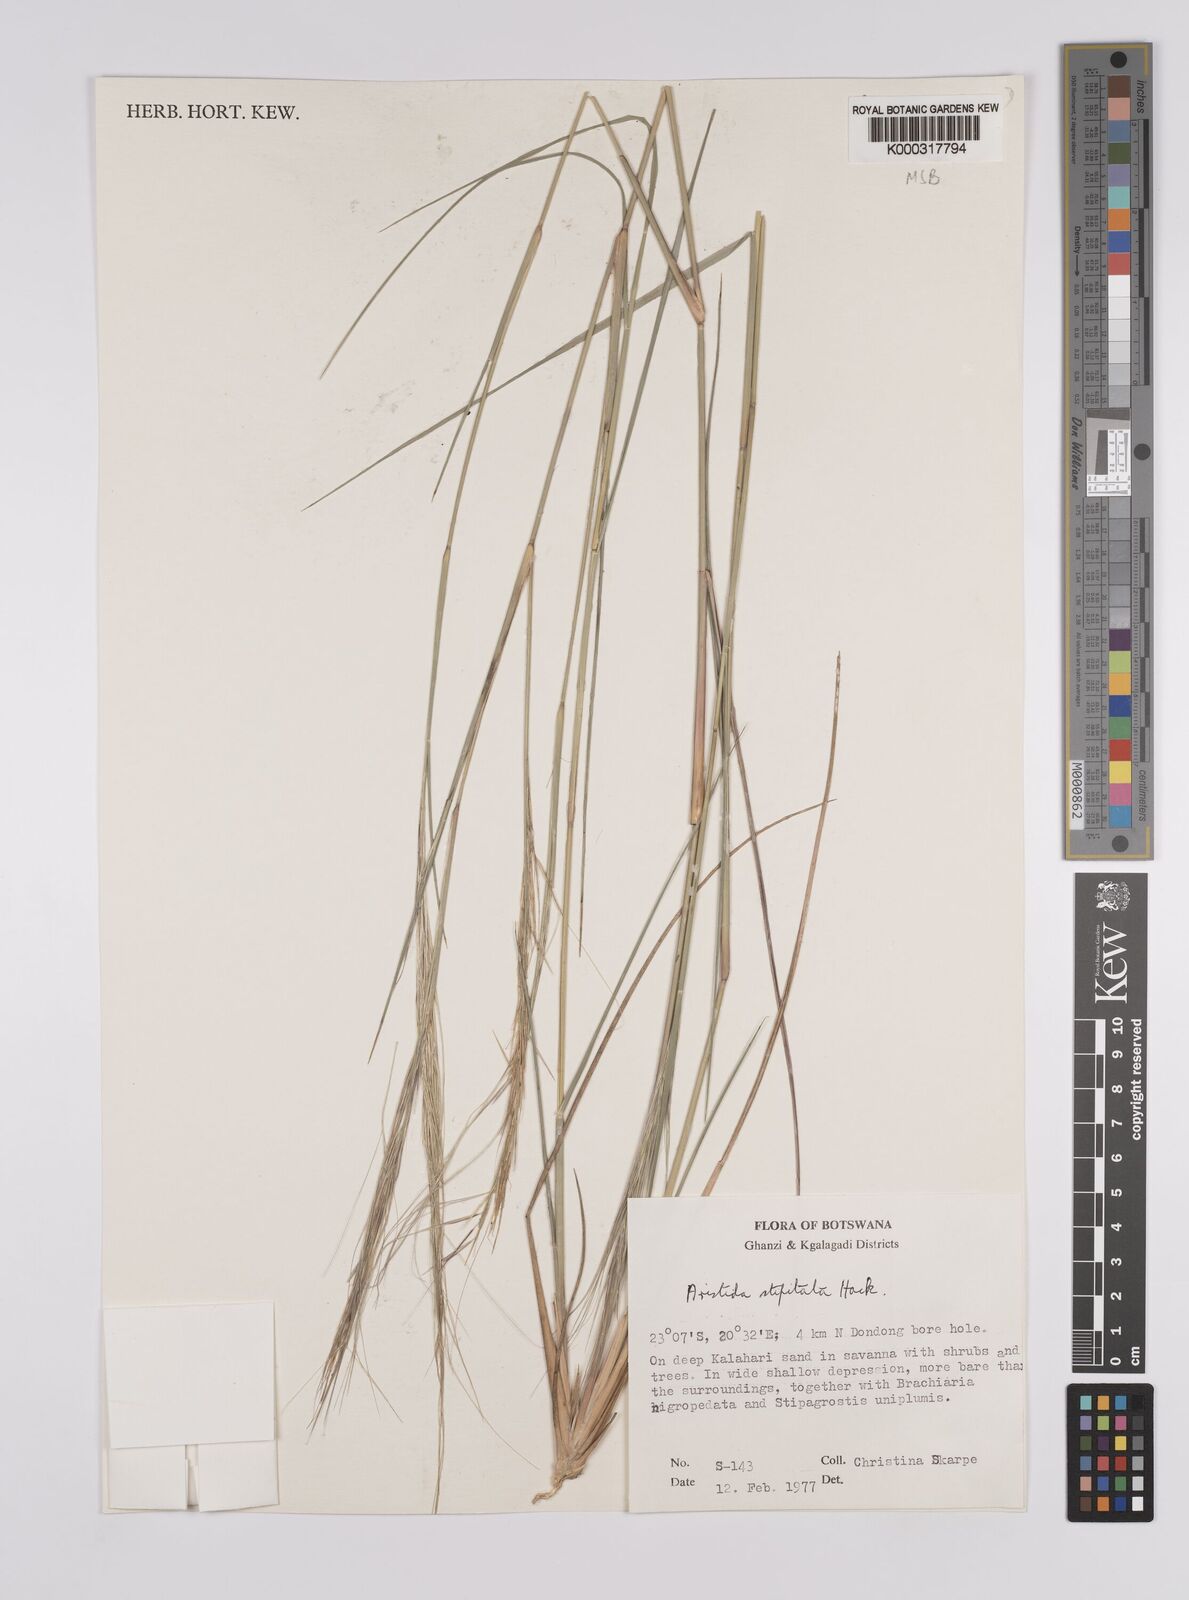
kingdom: Plantae
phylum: Tracheophyta
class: Liliopsida
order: Poales
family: Poaceae
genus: Aristida
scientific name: Aristida stipitata
